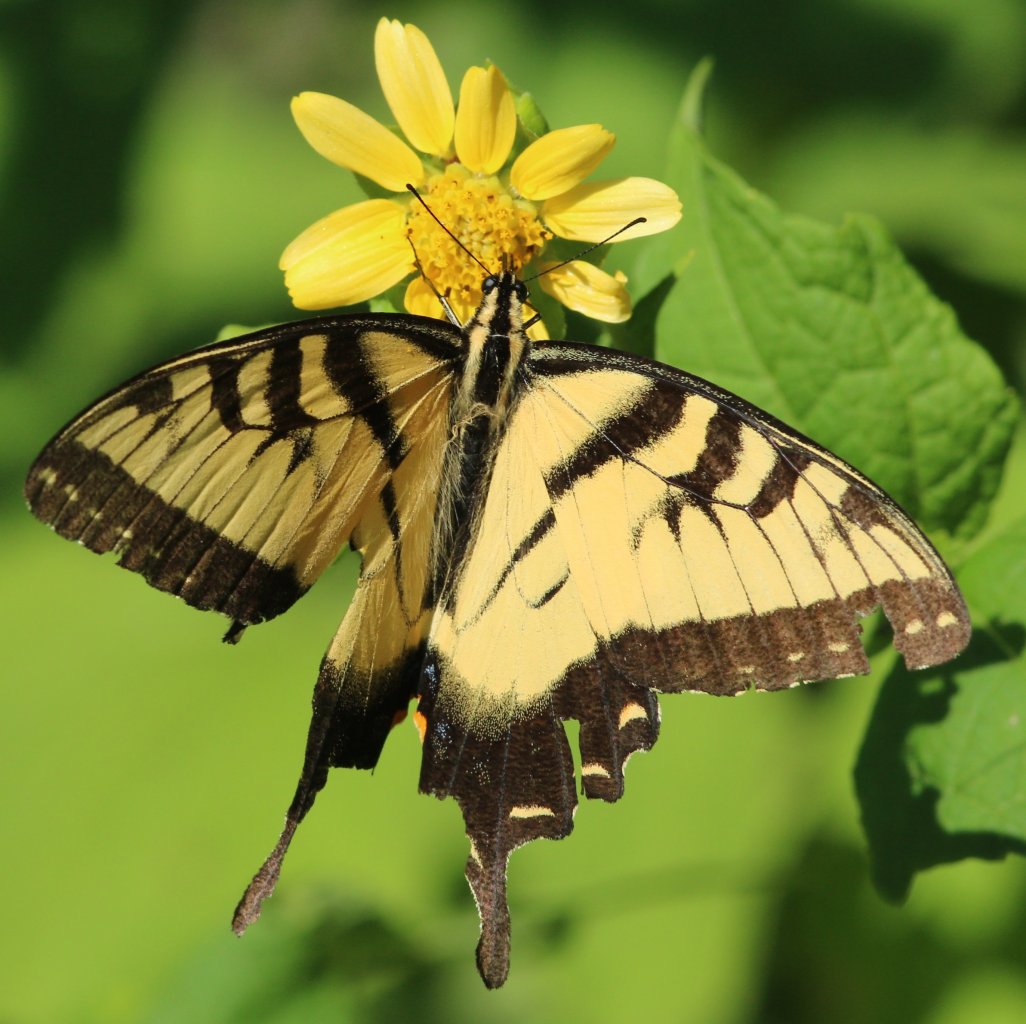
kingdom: Animalia
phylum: Arthropoda
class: Insecta
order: Lepidoptera
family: Papilionidae
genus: Pterourus
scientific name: Pterourus glaucus
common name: Eastern Tiger Swallowtail
